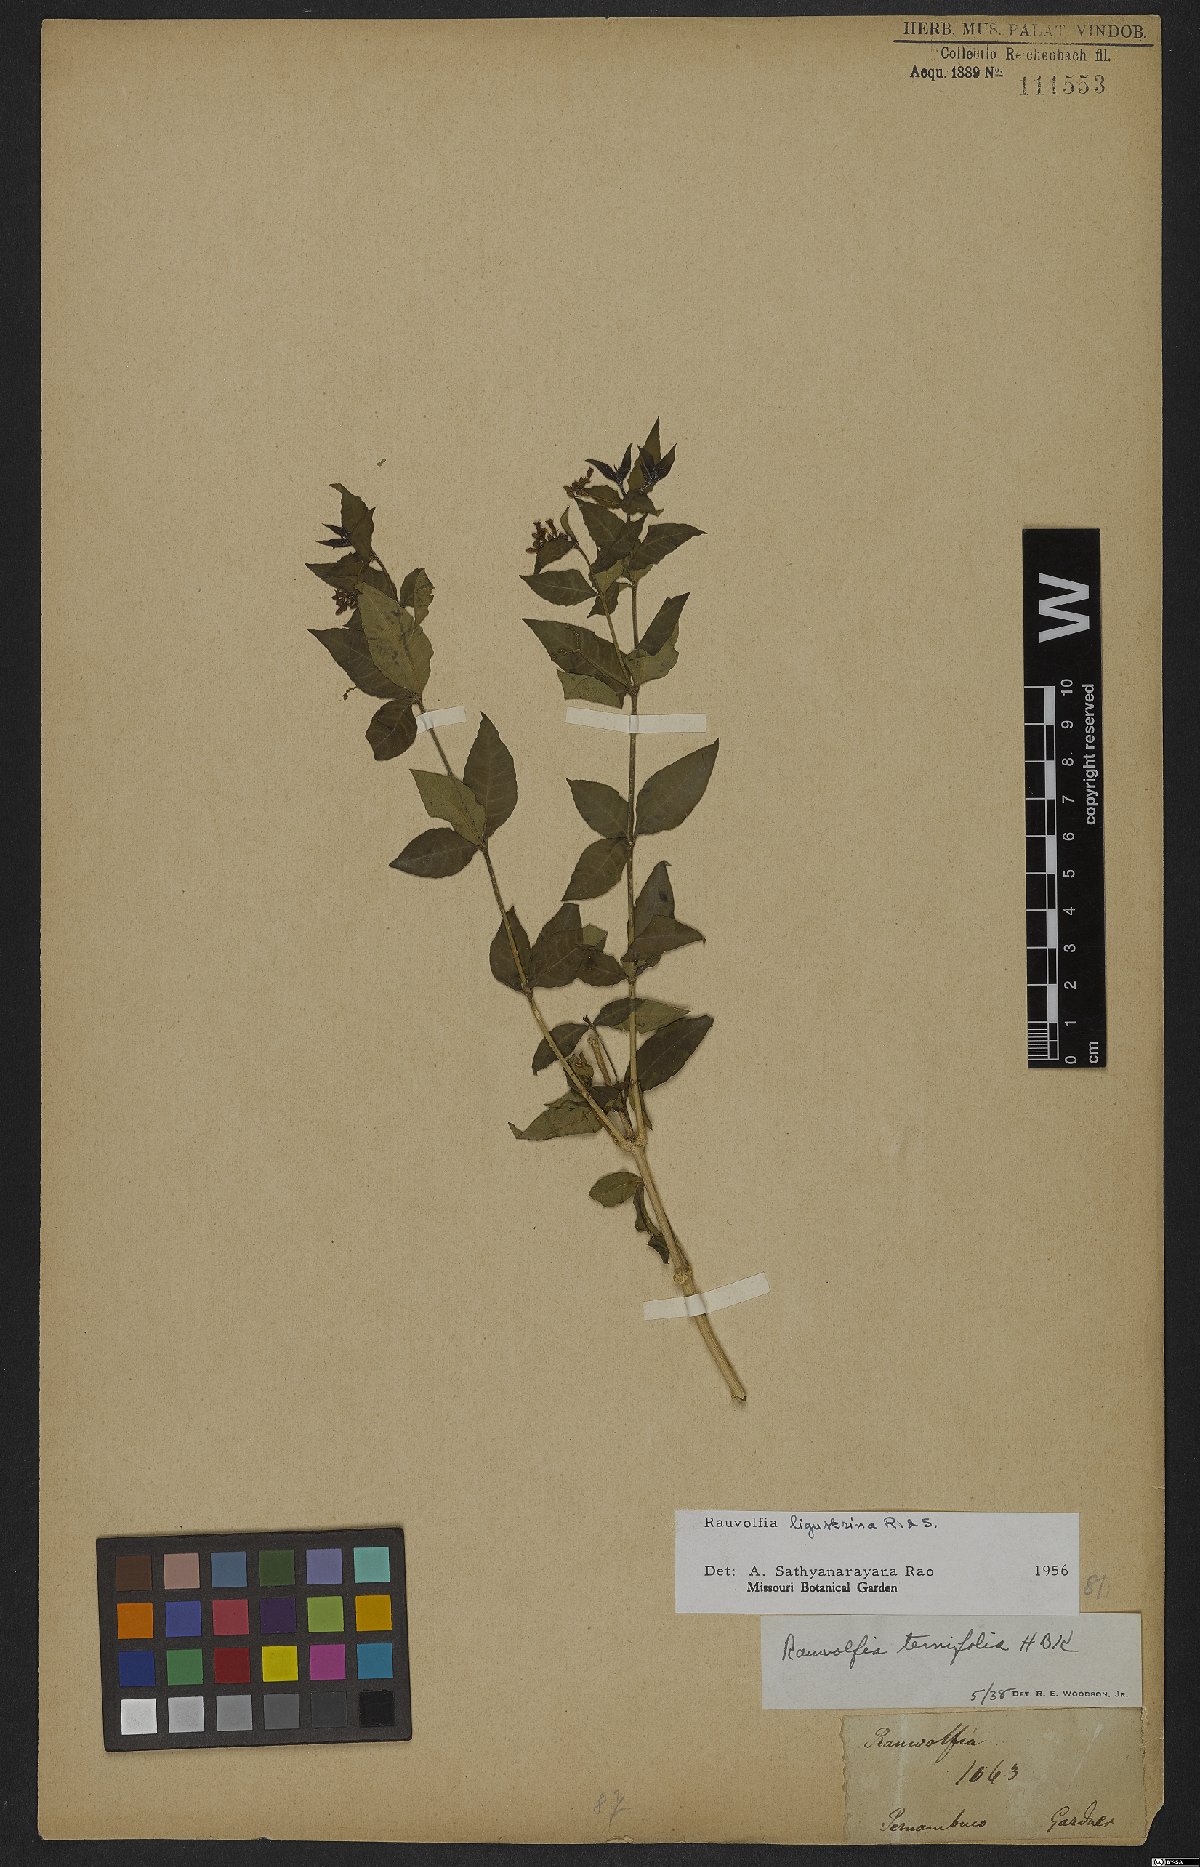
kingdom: Plantae
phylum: Tracheophyta
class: Magnoliopsida
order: Gentianales
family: Apocynaceae
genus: Rauvolfia
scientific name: Rauvolfia ligustrina
